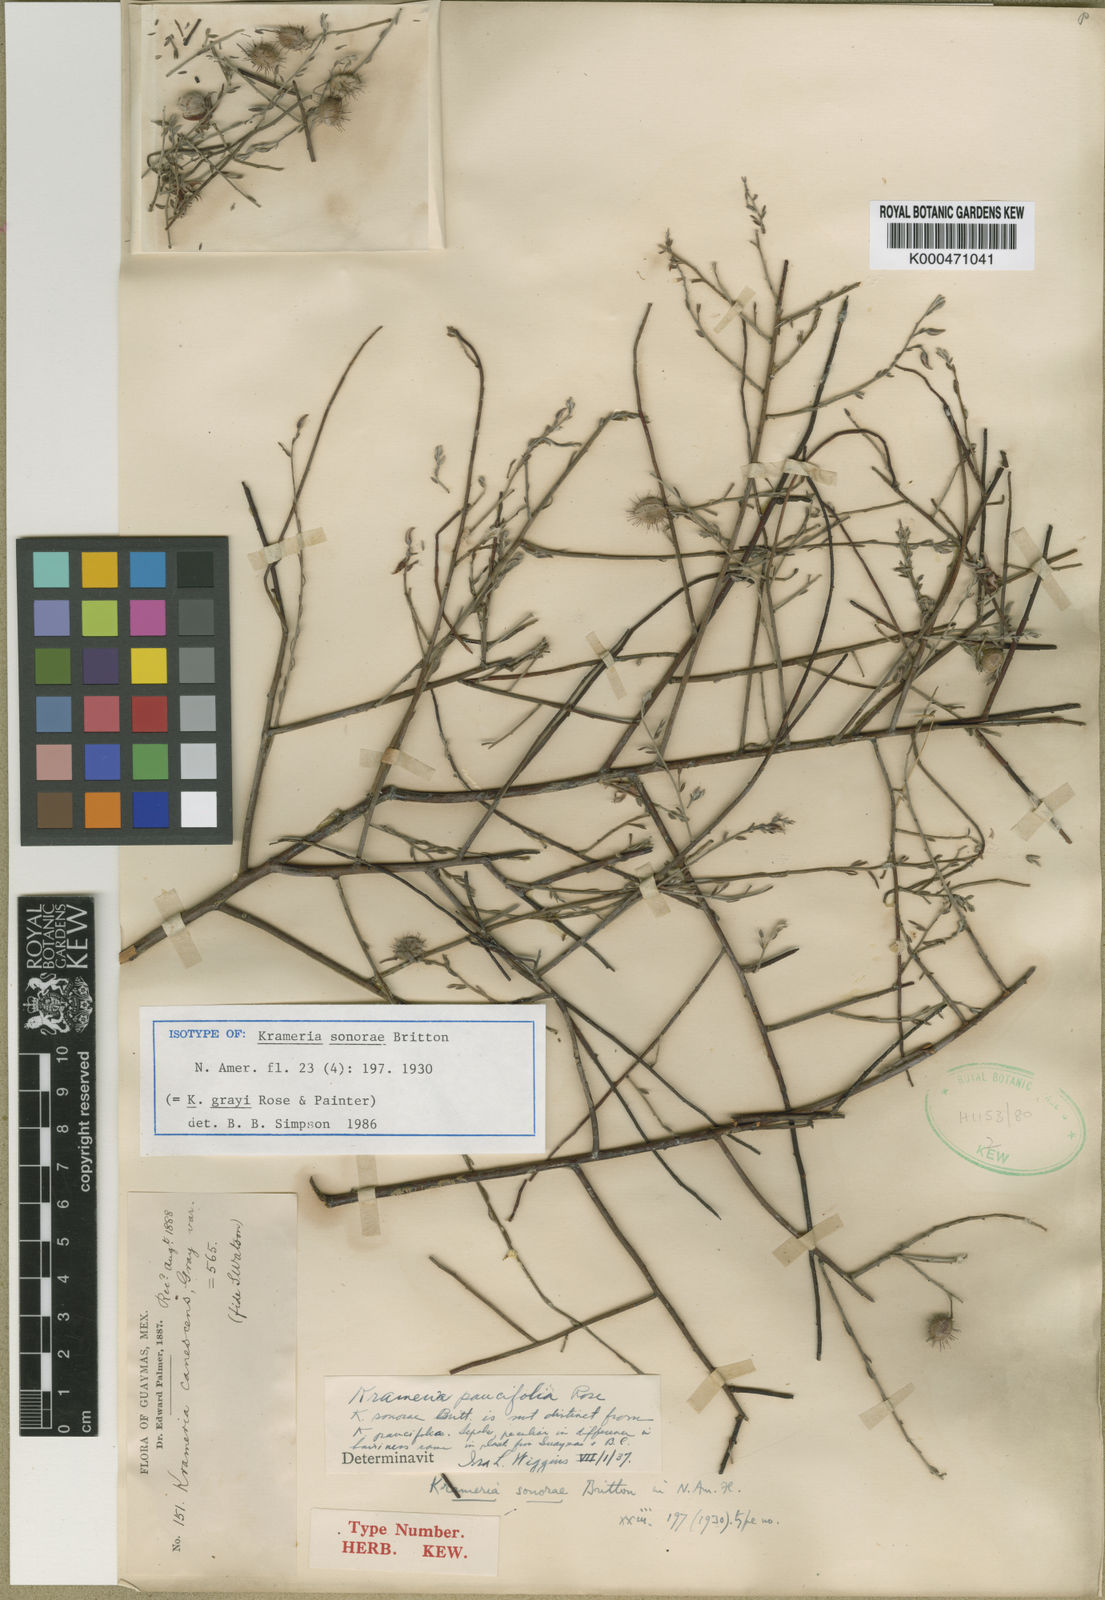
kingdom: Plantae
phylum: Tracheophyta
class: Magnoliopsida
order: Zygophyllales
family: Krameriaceae
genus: Krameria
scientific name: Krameria bicolor
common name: White ratany
